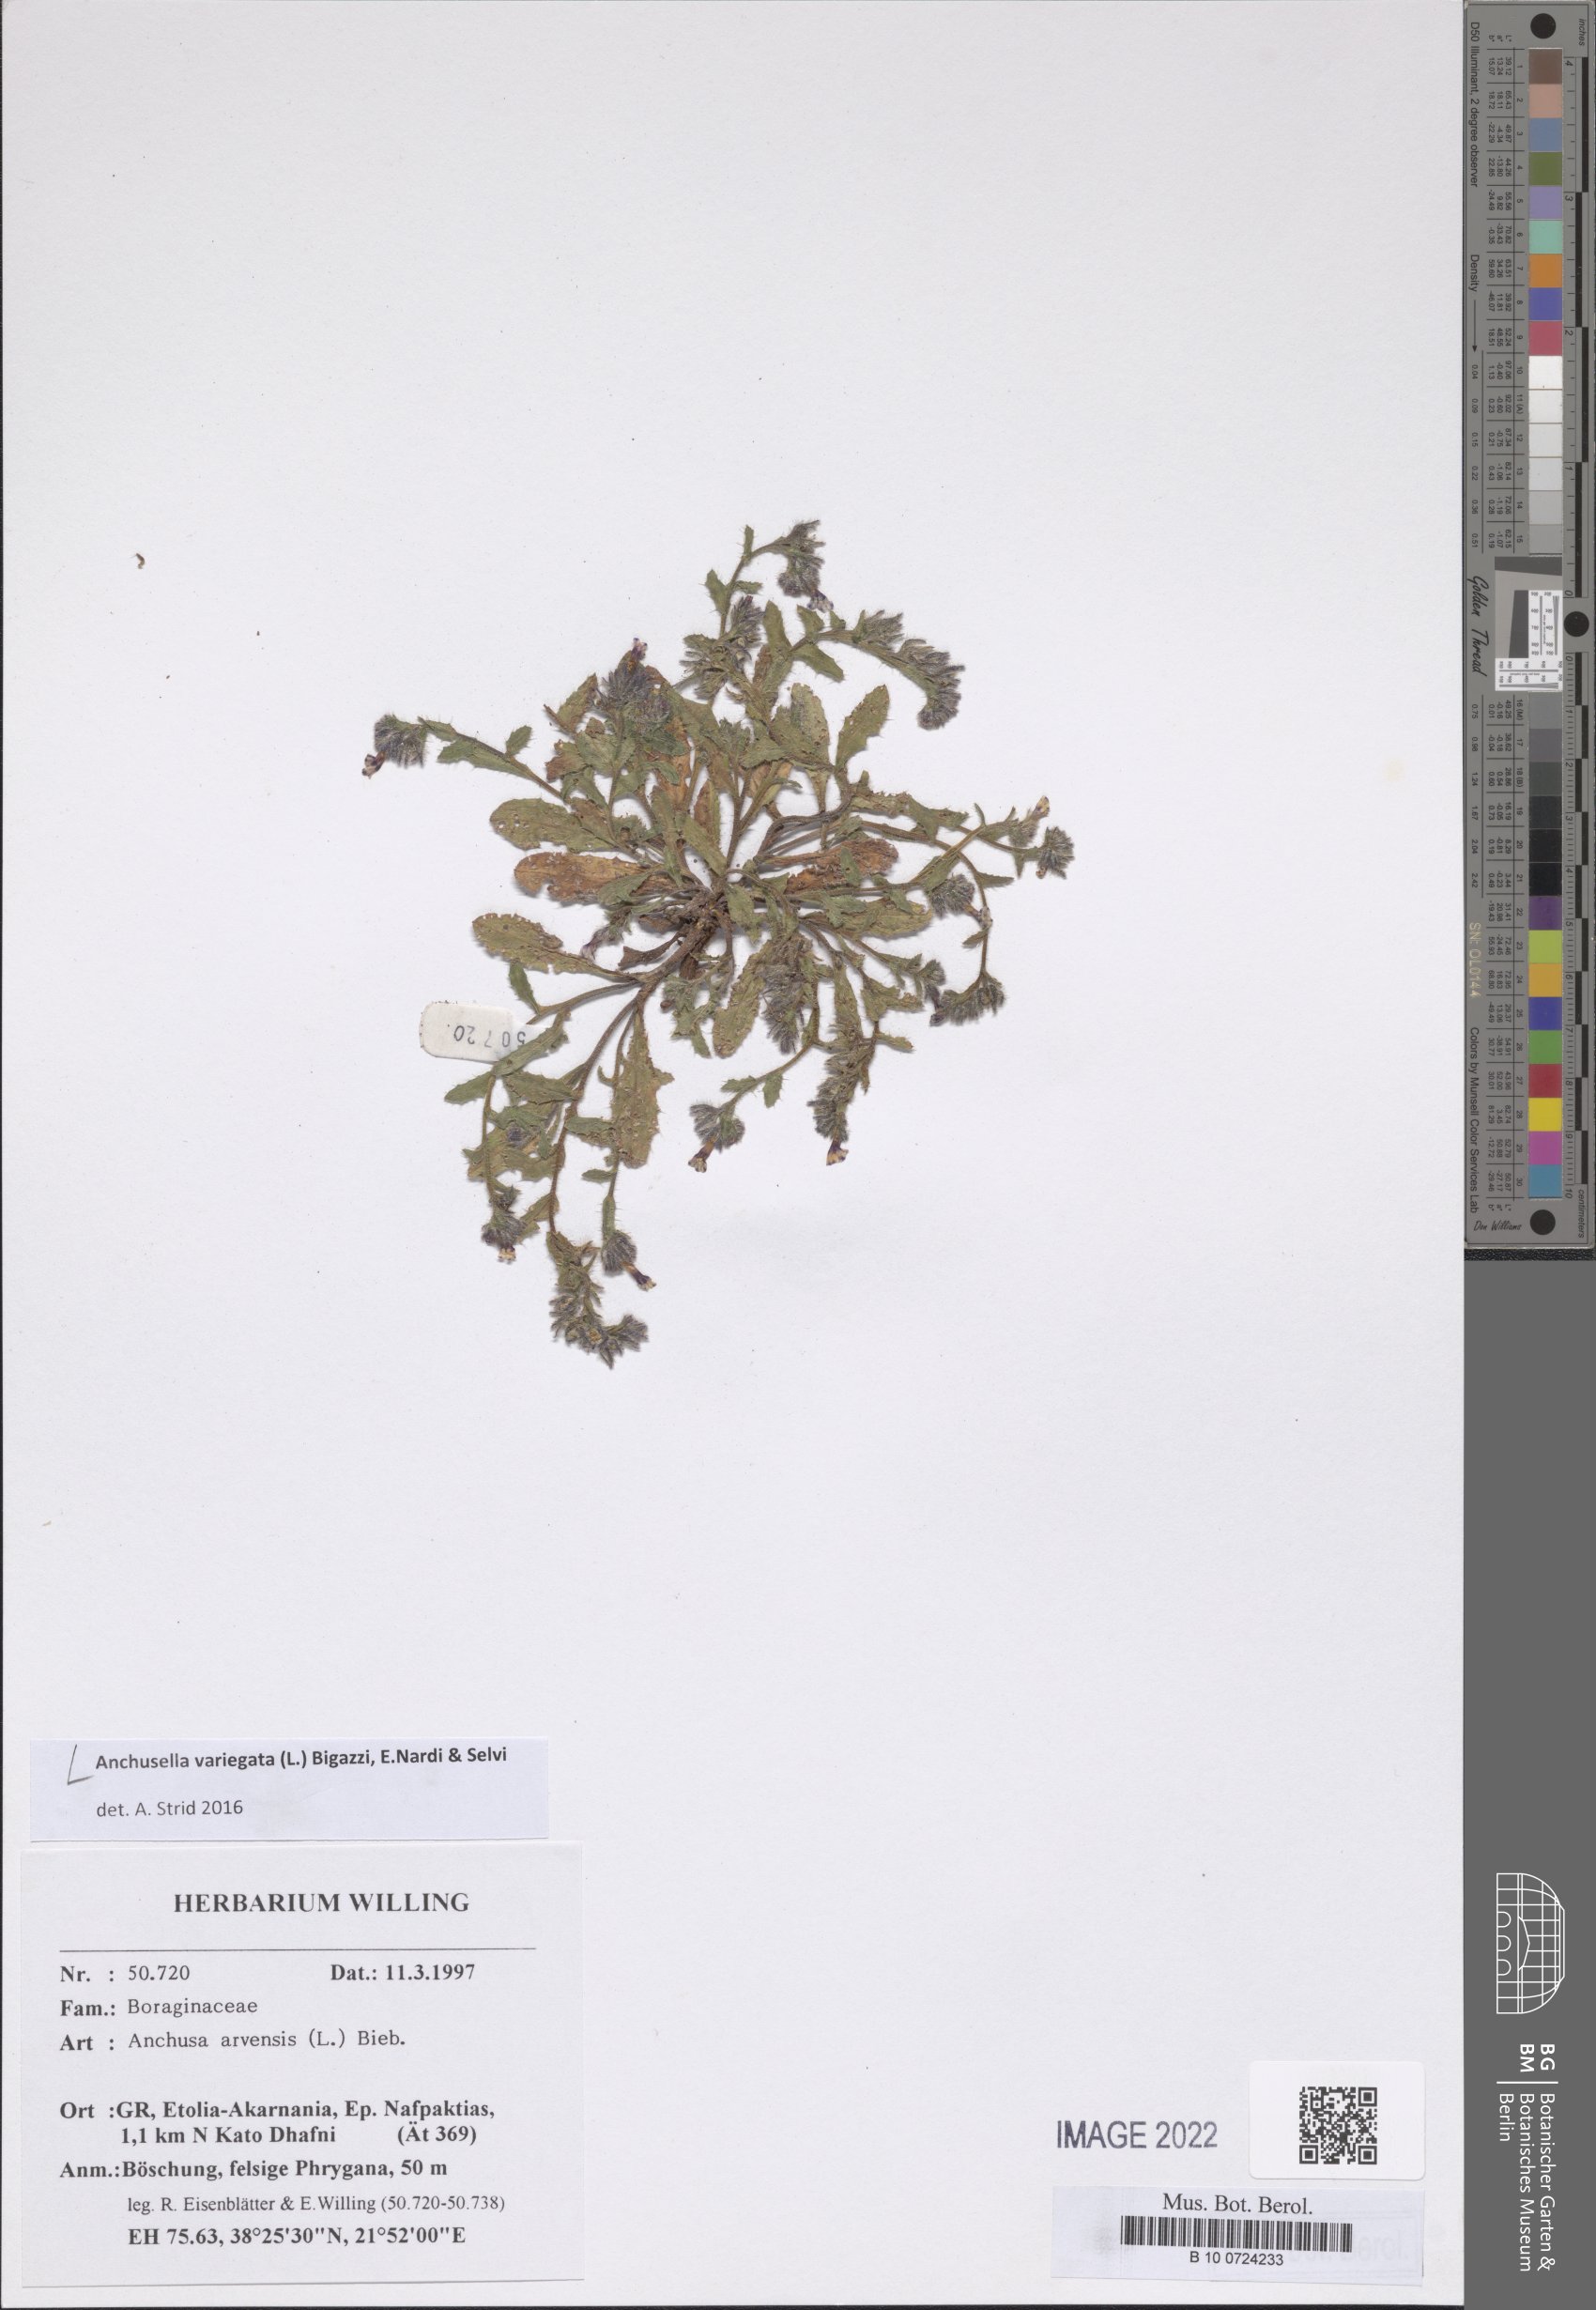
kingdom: Plantae
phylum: Tracheophyta
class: Magnoliopsida
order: Boraginales
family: Boraginaceae
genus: Anchusella
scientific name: Anchusella variegata
